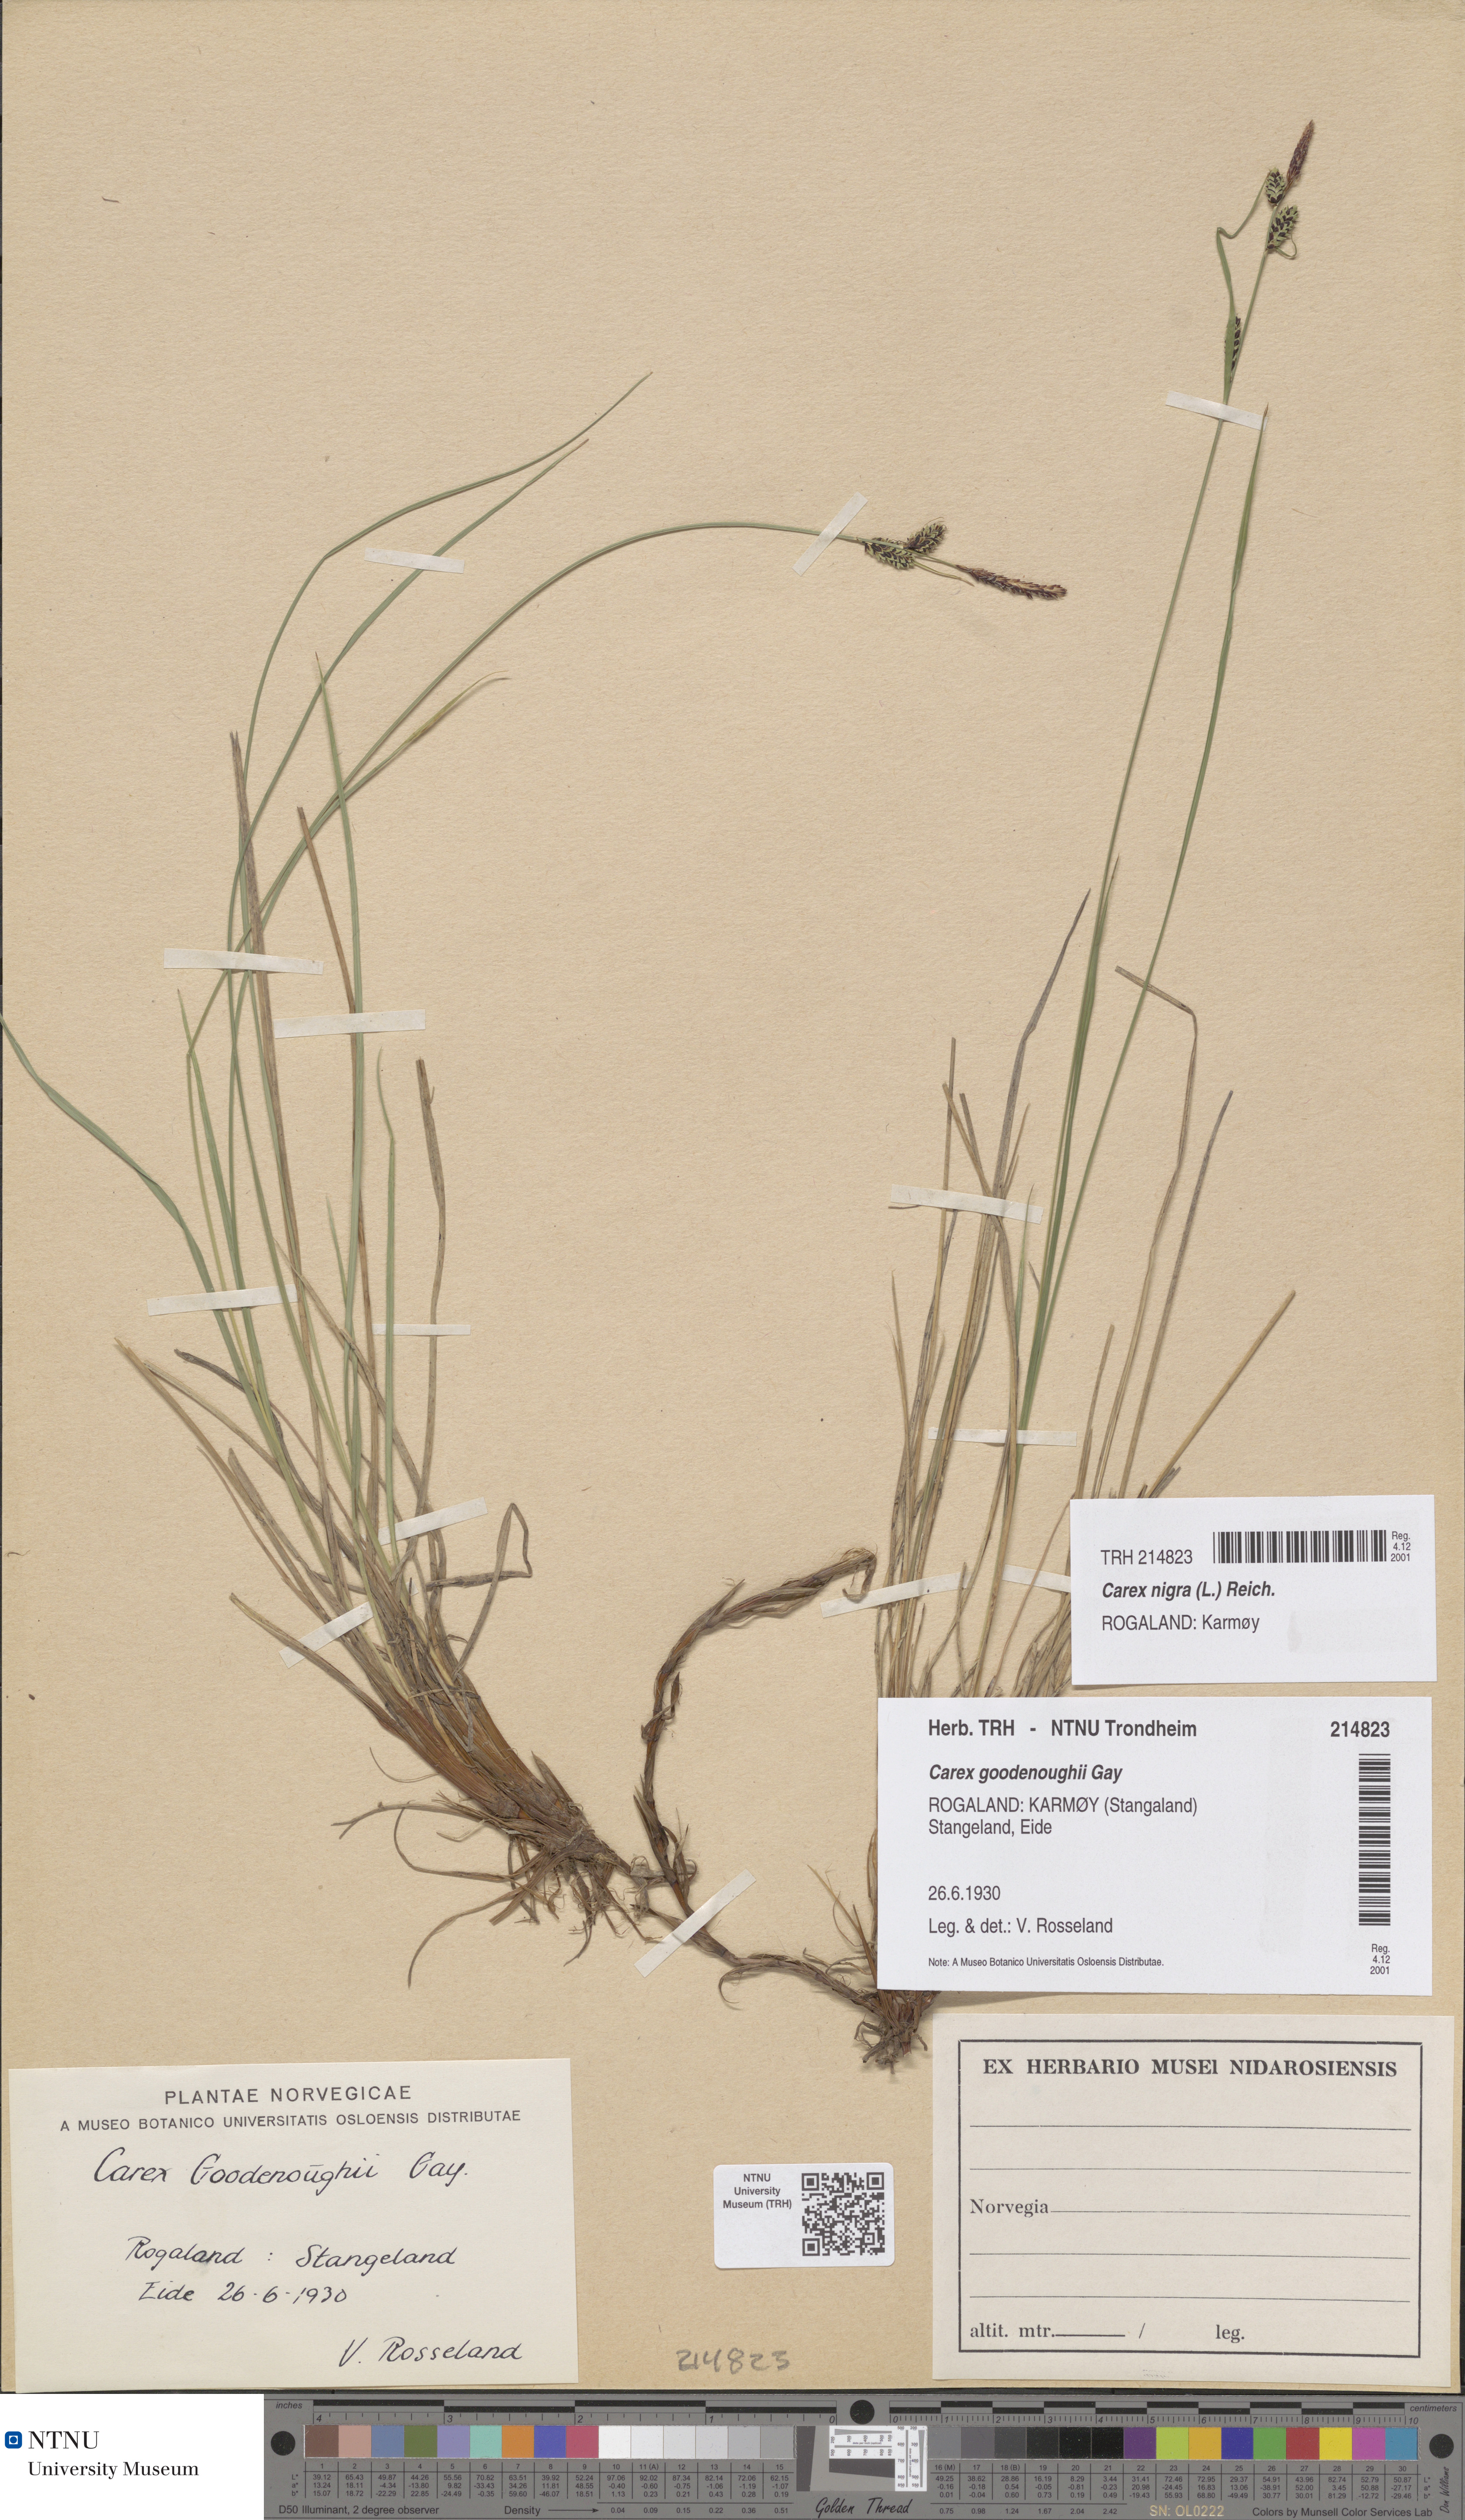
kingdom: Plantae
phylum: Tracheophyta
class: Liliopsida
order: Poales
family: Cyperaceae
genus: Carex
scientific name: Carex nigra
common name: Common sedge
